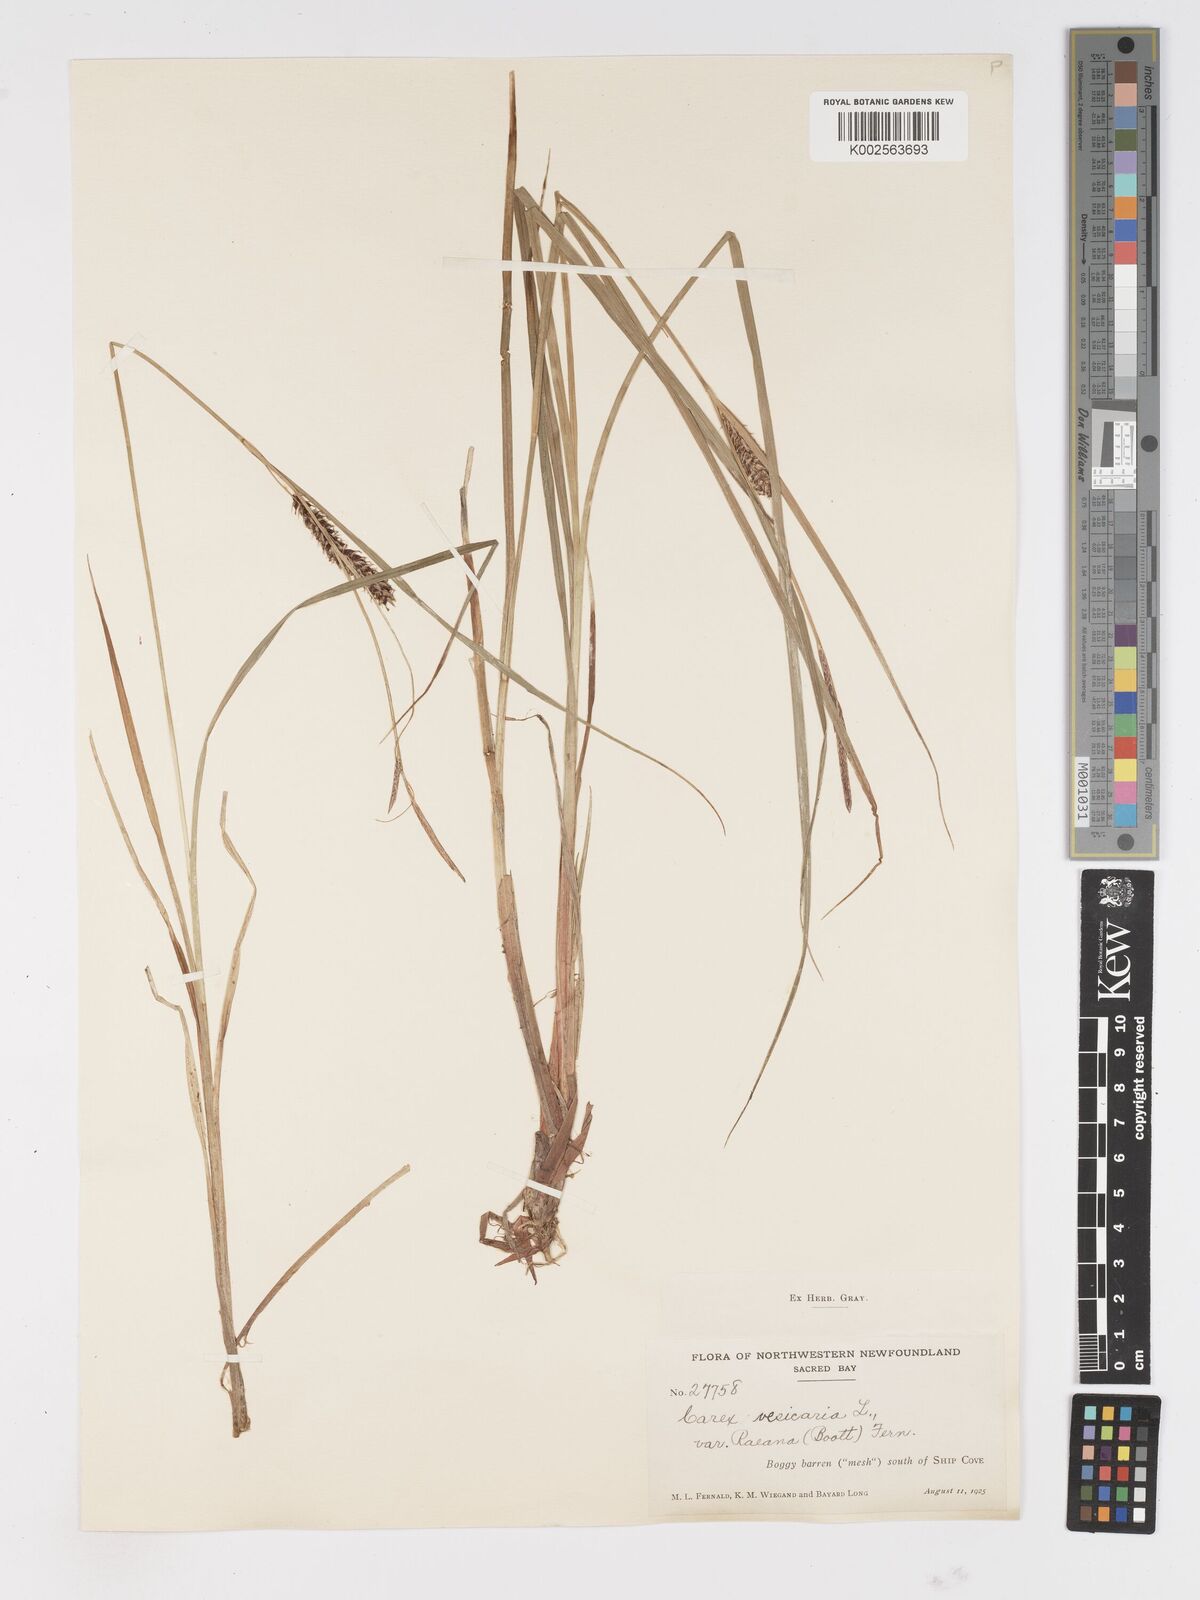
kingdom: Plantae
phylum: Tracheophyta
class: Liliopsida
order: Poales
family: Cyperaceae
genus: Carex
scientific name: Carex vesicaria
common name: Bladder-sedge
